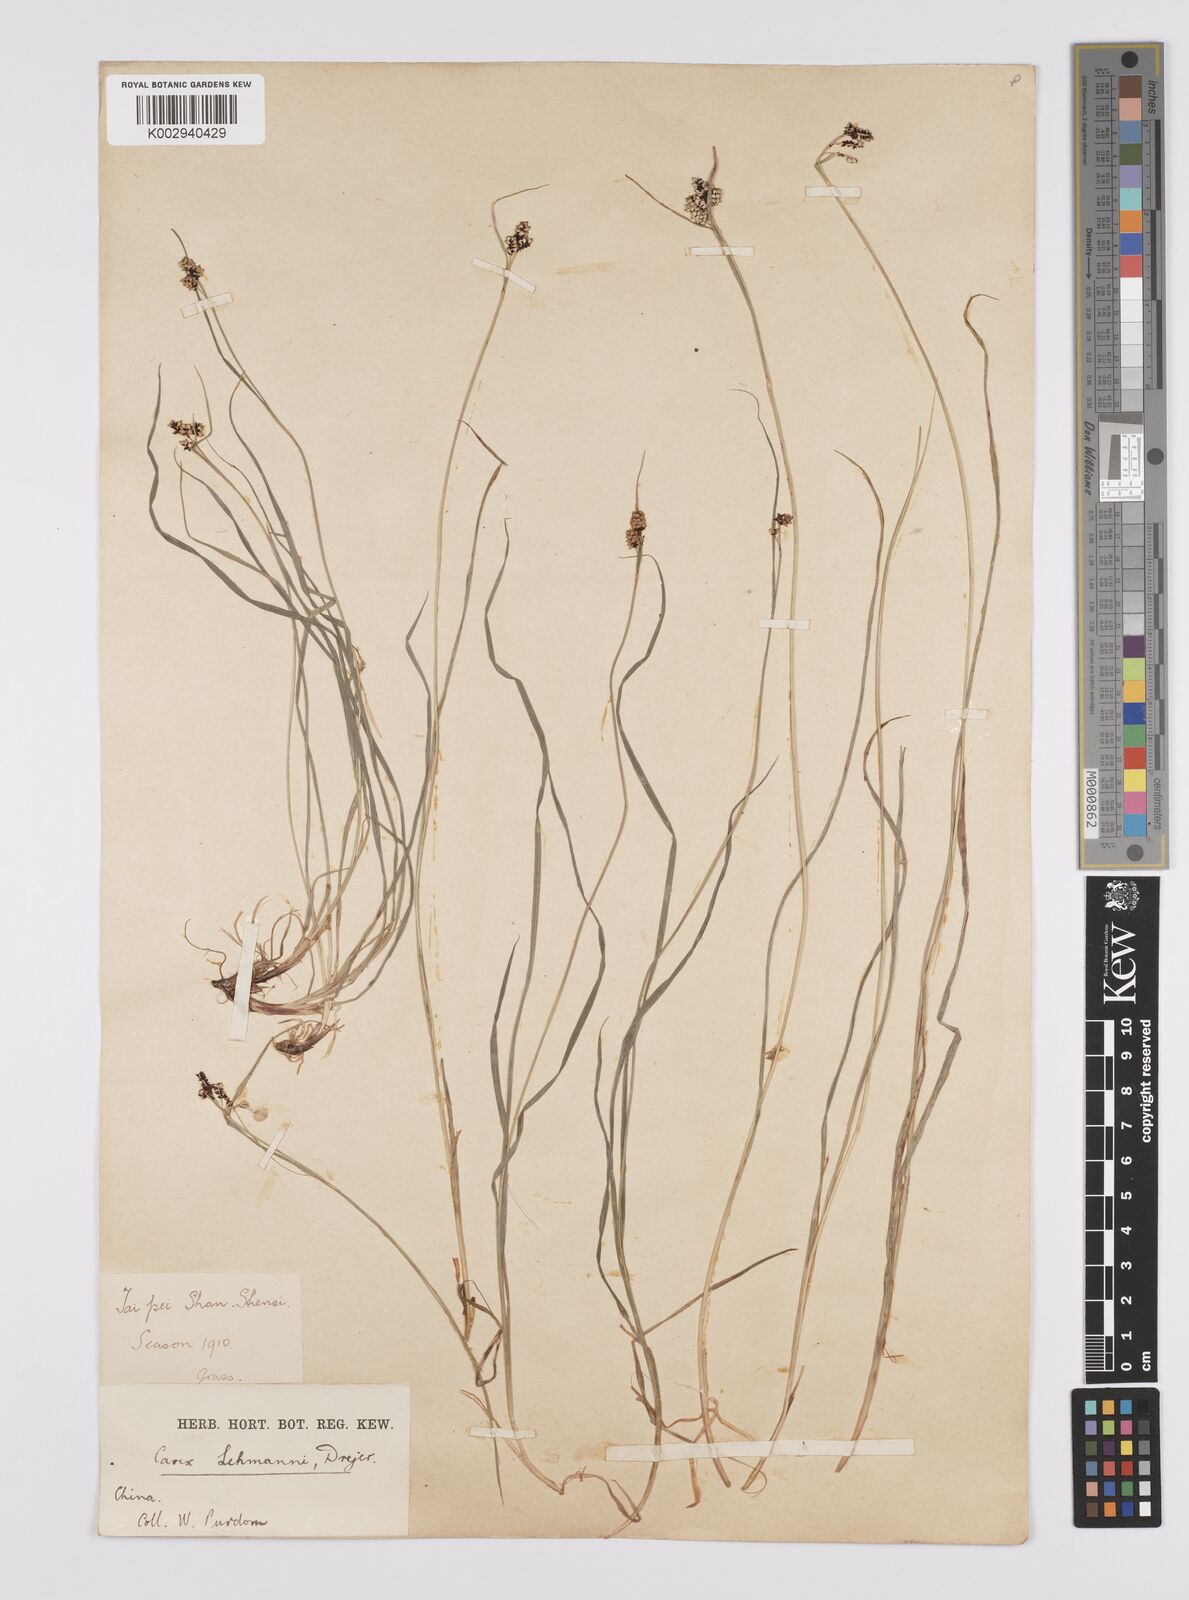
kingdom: Plantae
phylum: Tracheophyta
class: Liliopsida
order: Poales
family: Cyperaceae
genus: Carex
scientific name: Carex lehmannii
